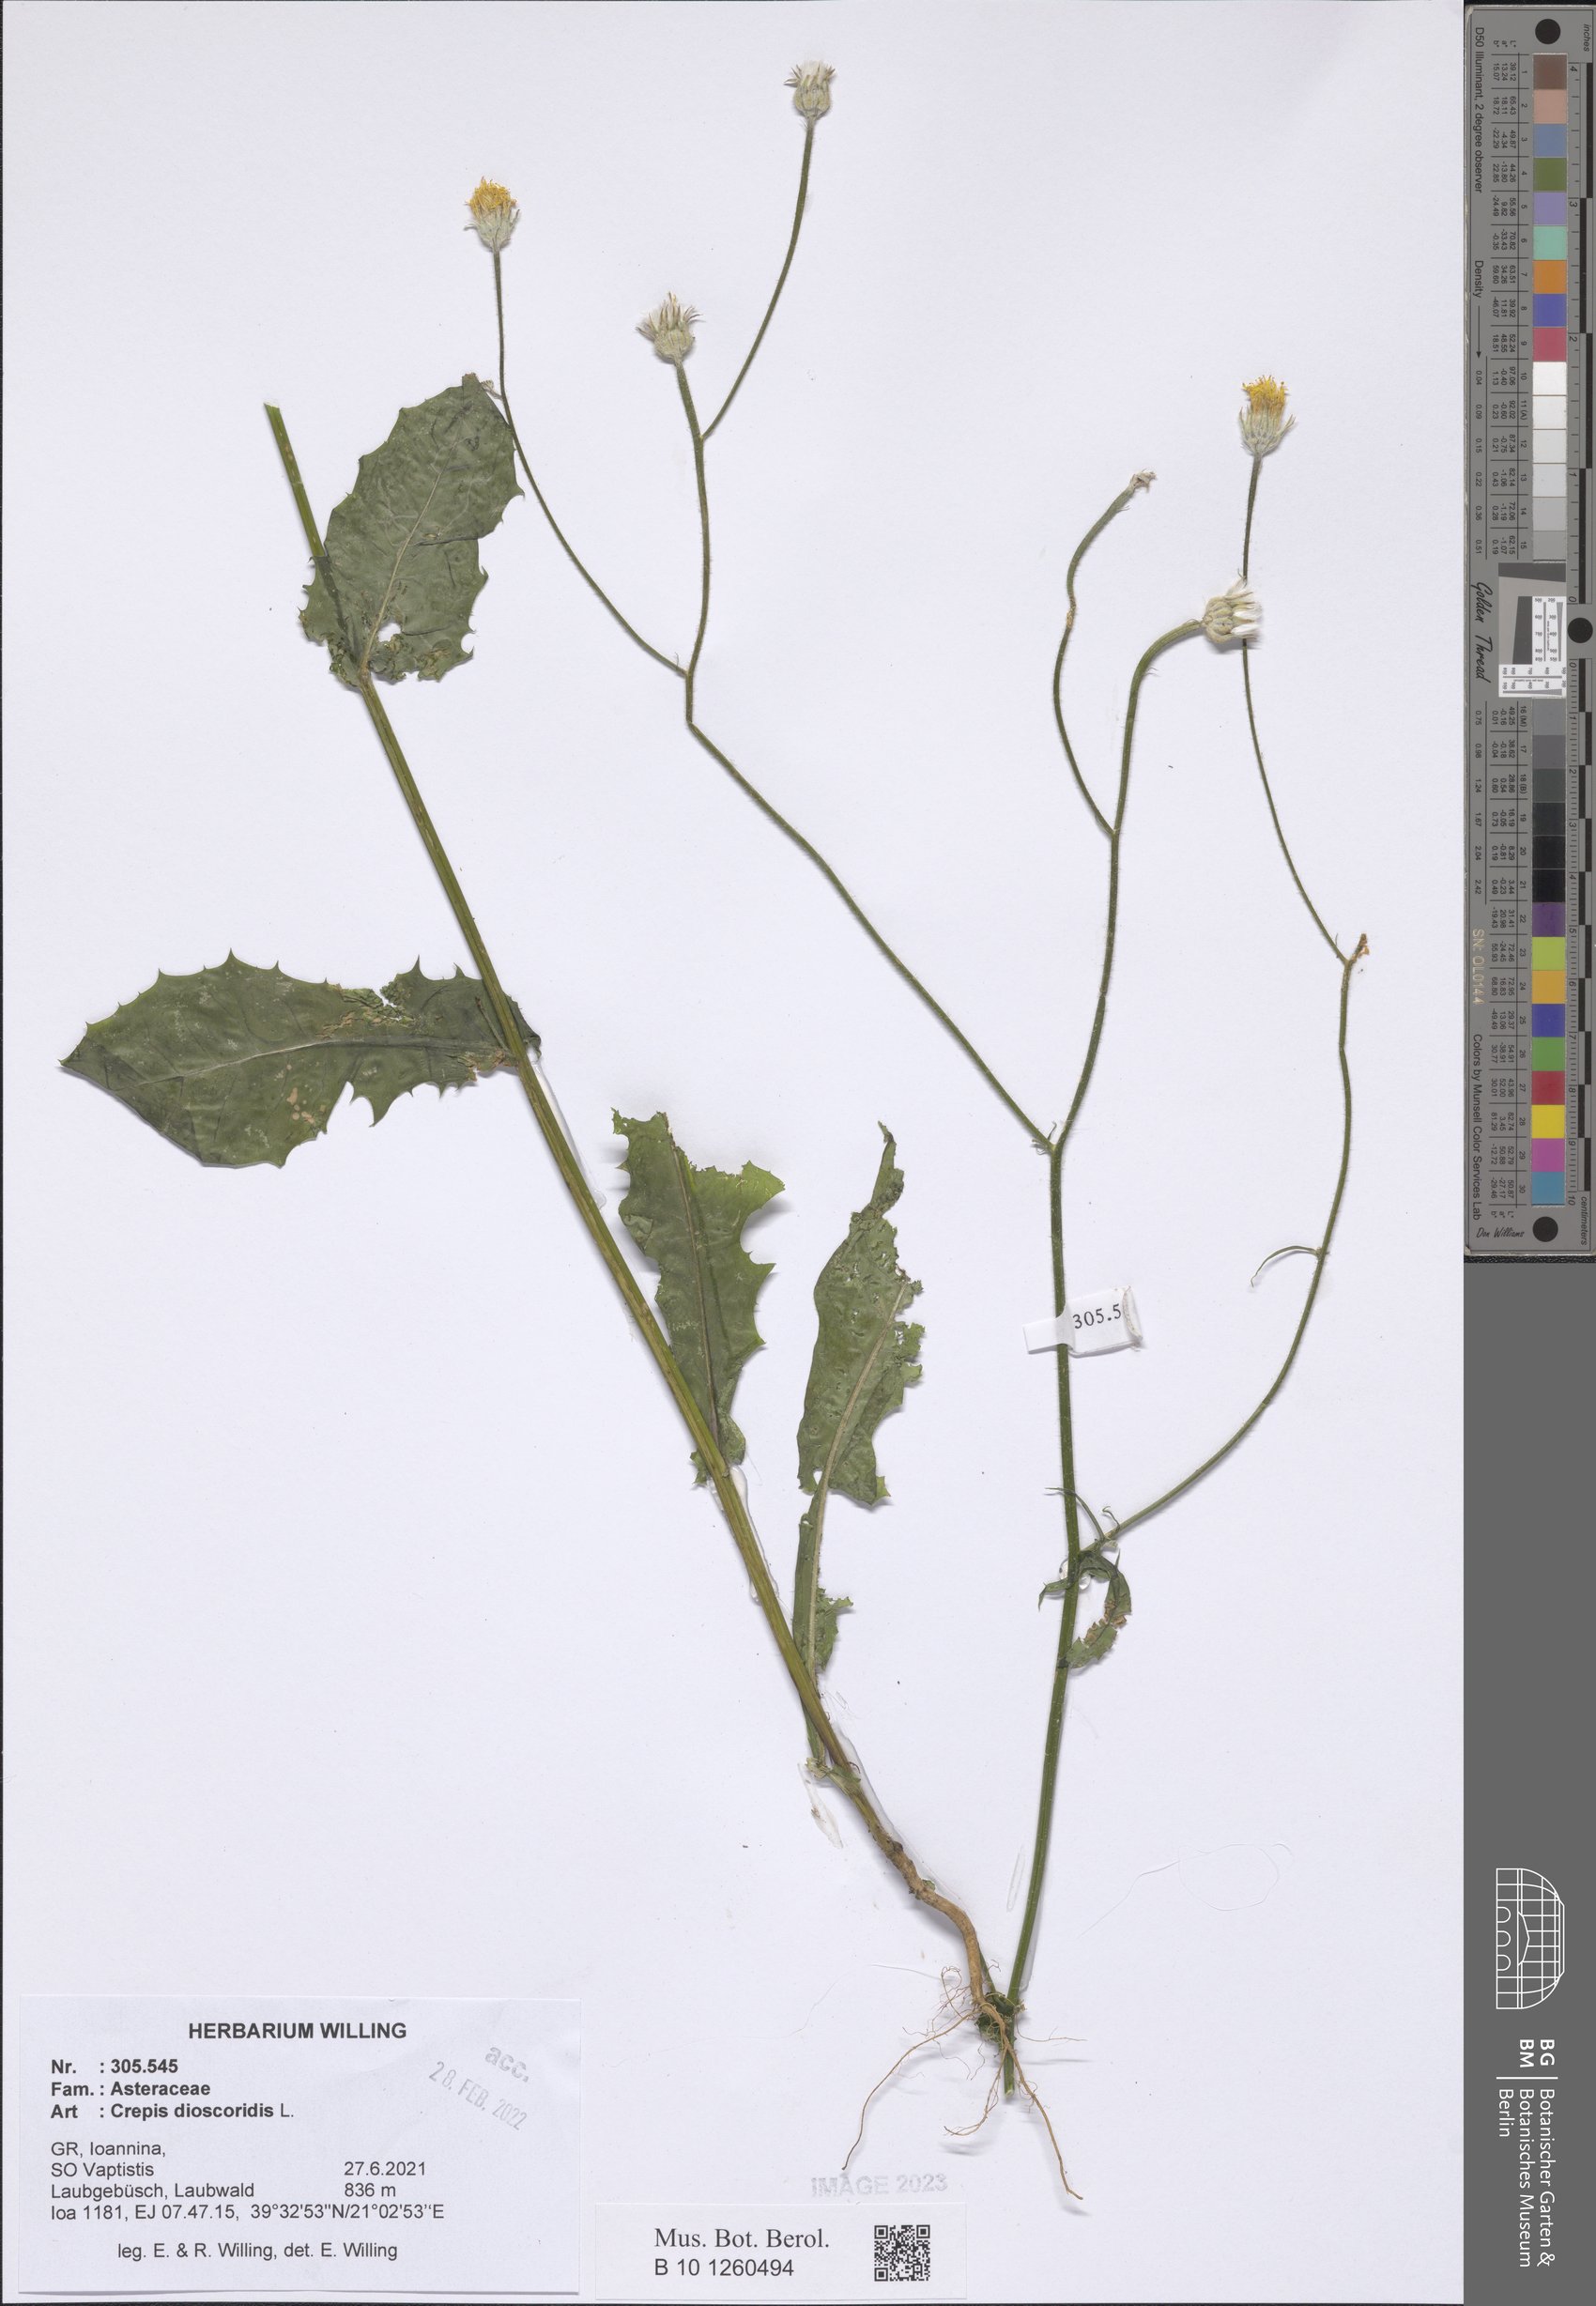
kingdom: Plantae
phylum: Tracheophyta
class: Magnoliopsida
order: Asterales
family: Asteraceae
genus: Crepis
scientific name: Crepis dioscoridis
